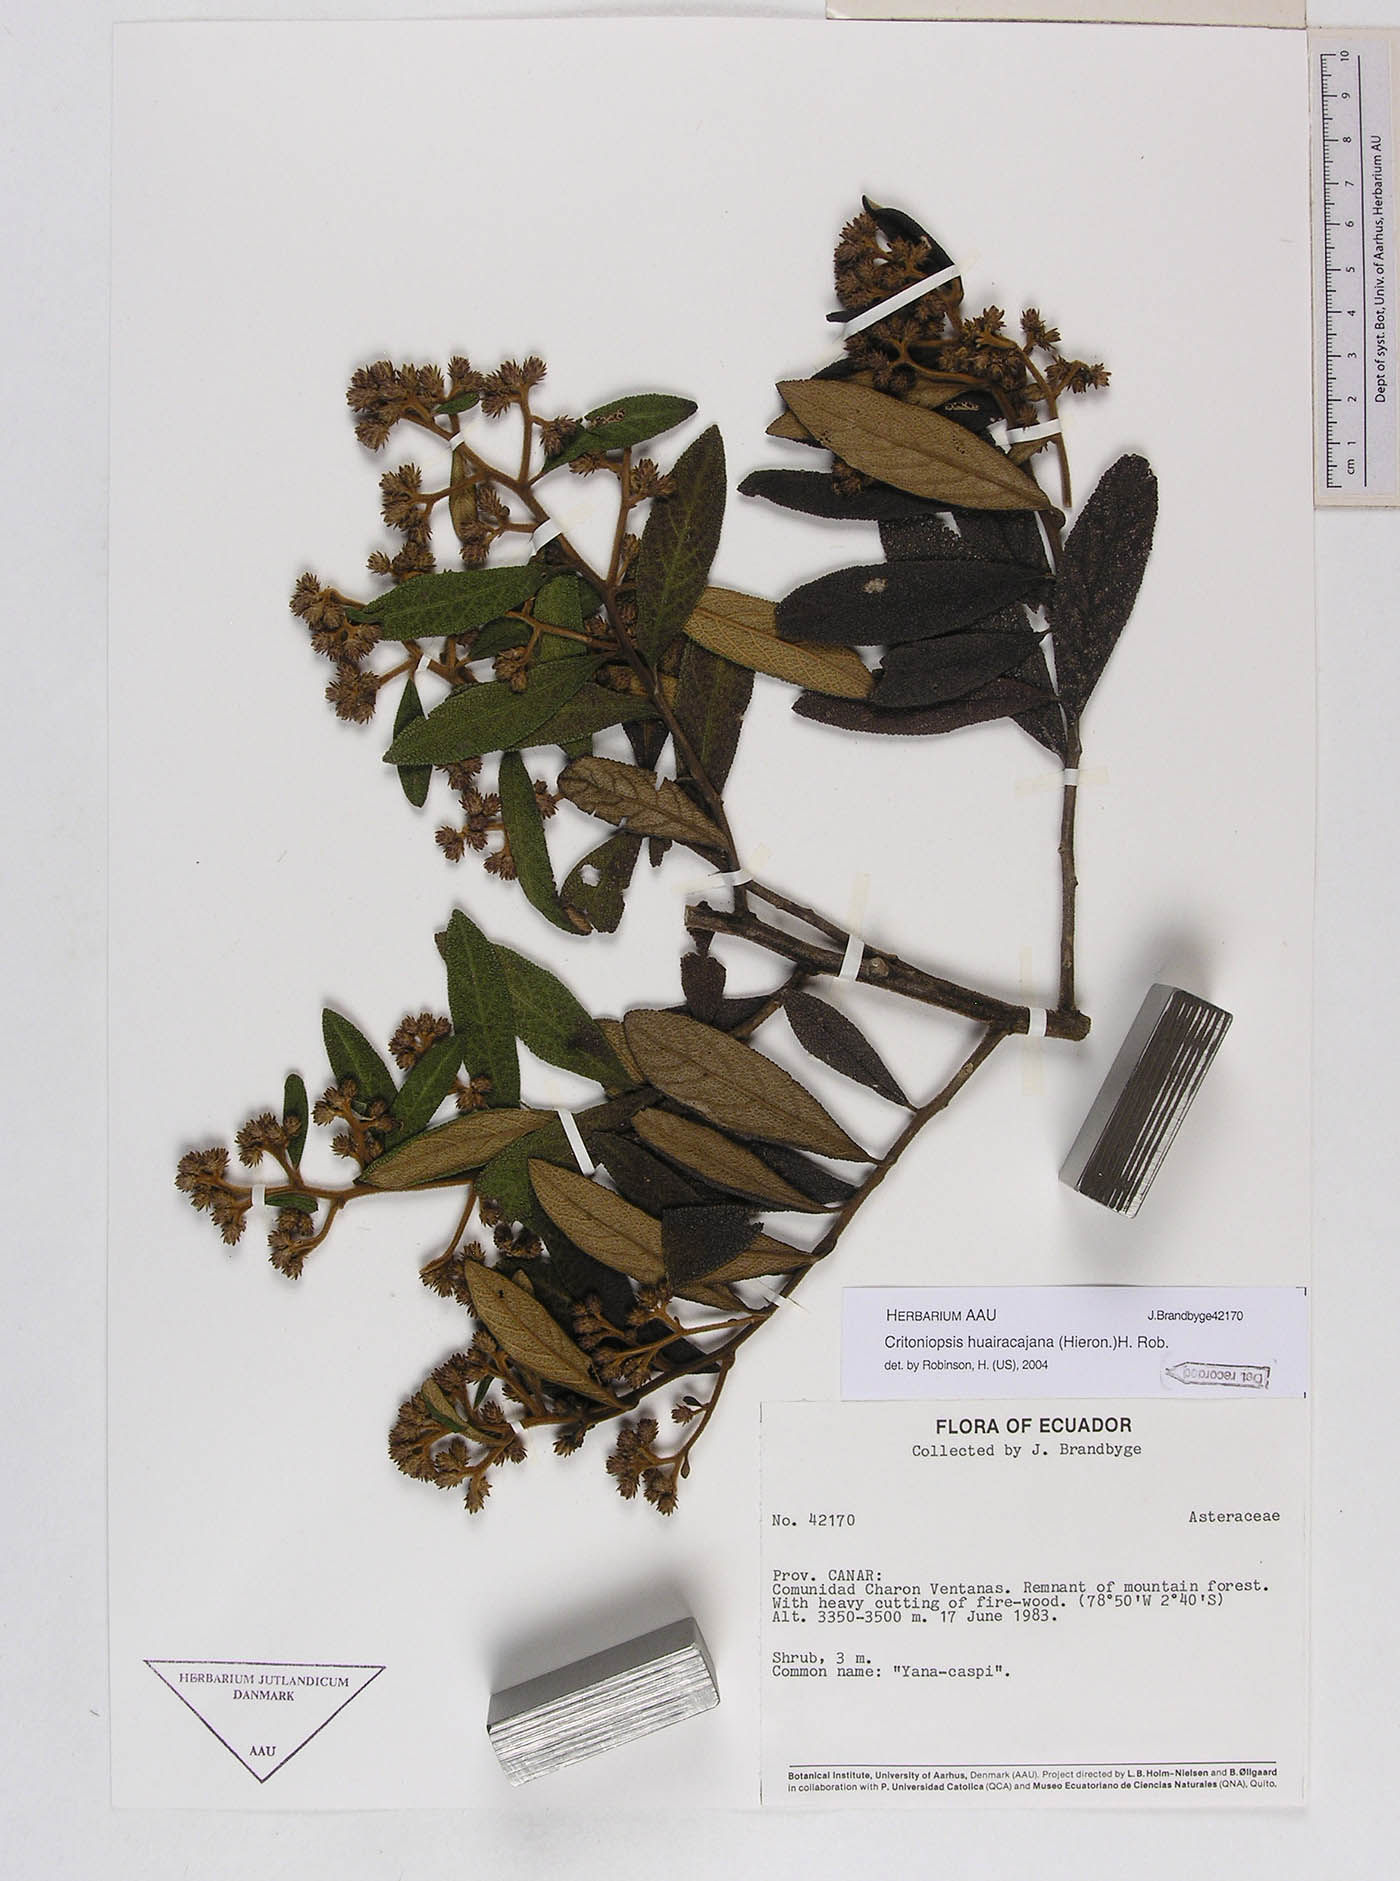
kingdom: Plantae
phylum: Tracheophyta
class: Magnoliopsida
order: Asterales
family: Asteraceae
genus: Critoniopsis
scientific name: Critoniopsis huairacajana
